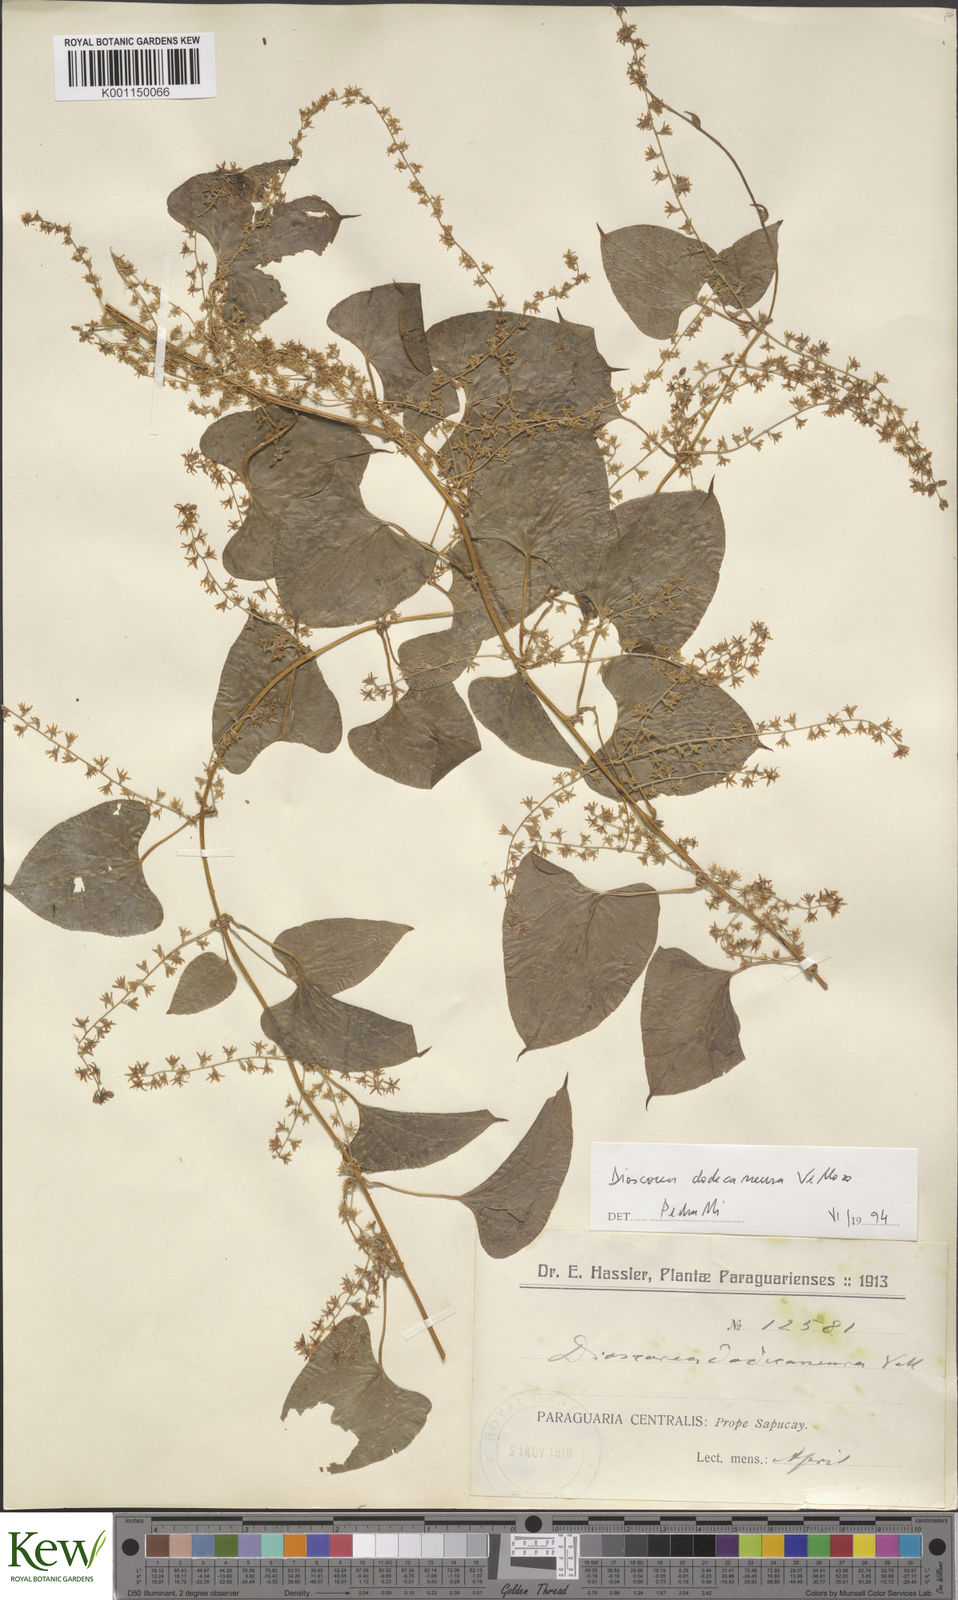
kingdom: Plantae
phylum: Tracheophyta
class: Liliopsida
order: Dioscoreales
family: Dioscoreaceae
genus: Dioscorea
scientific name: Dioscorea dodecaneura
